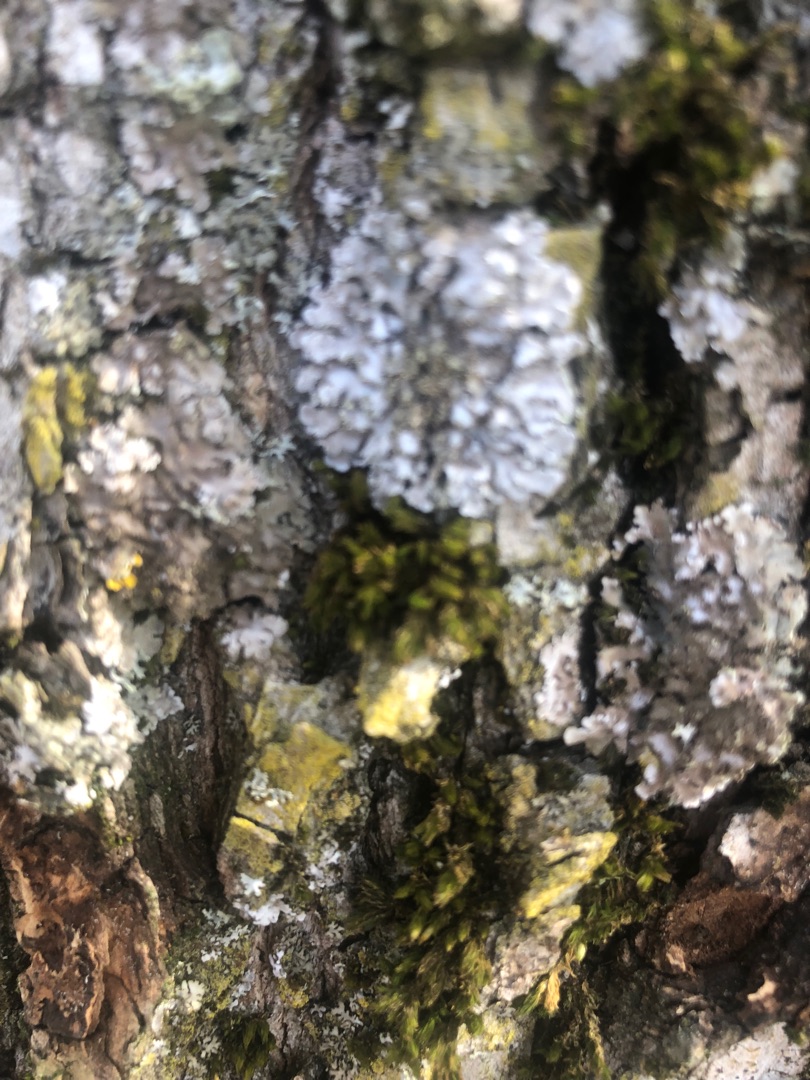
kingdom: Fungi
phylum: Ascomycota
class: Lecanoromycetes
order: Caliciales
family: Physciaceae
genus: Physconia
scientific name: Physconia
